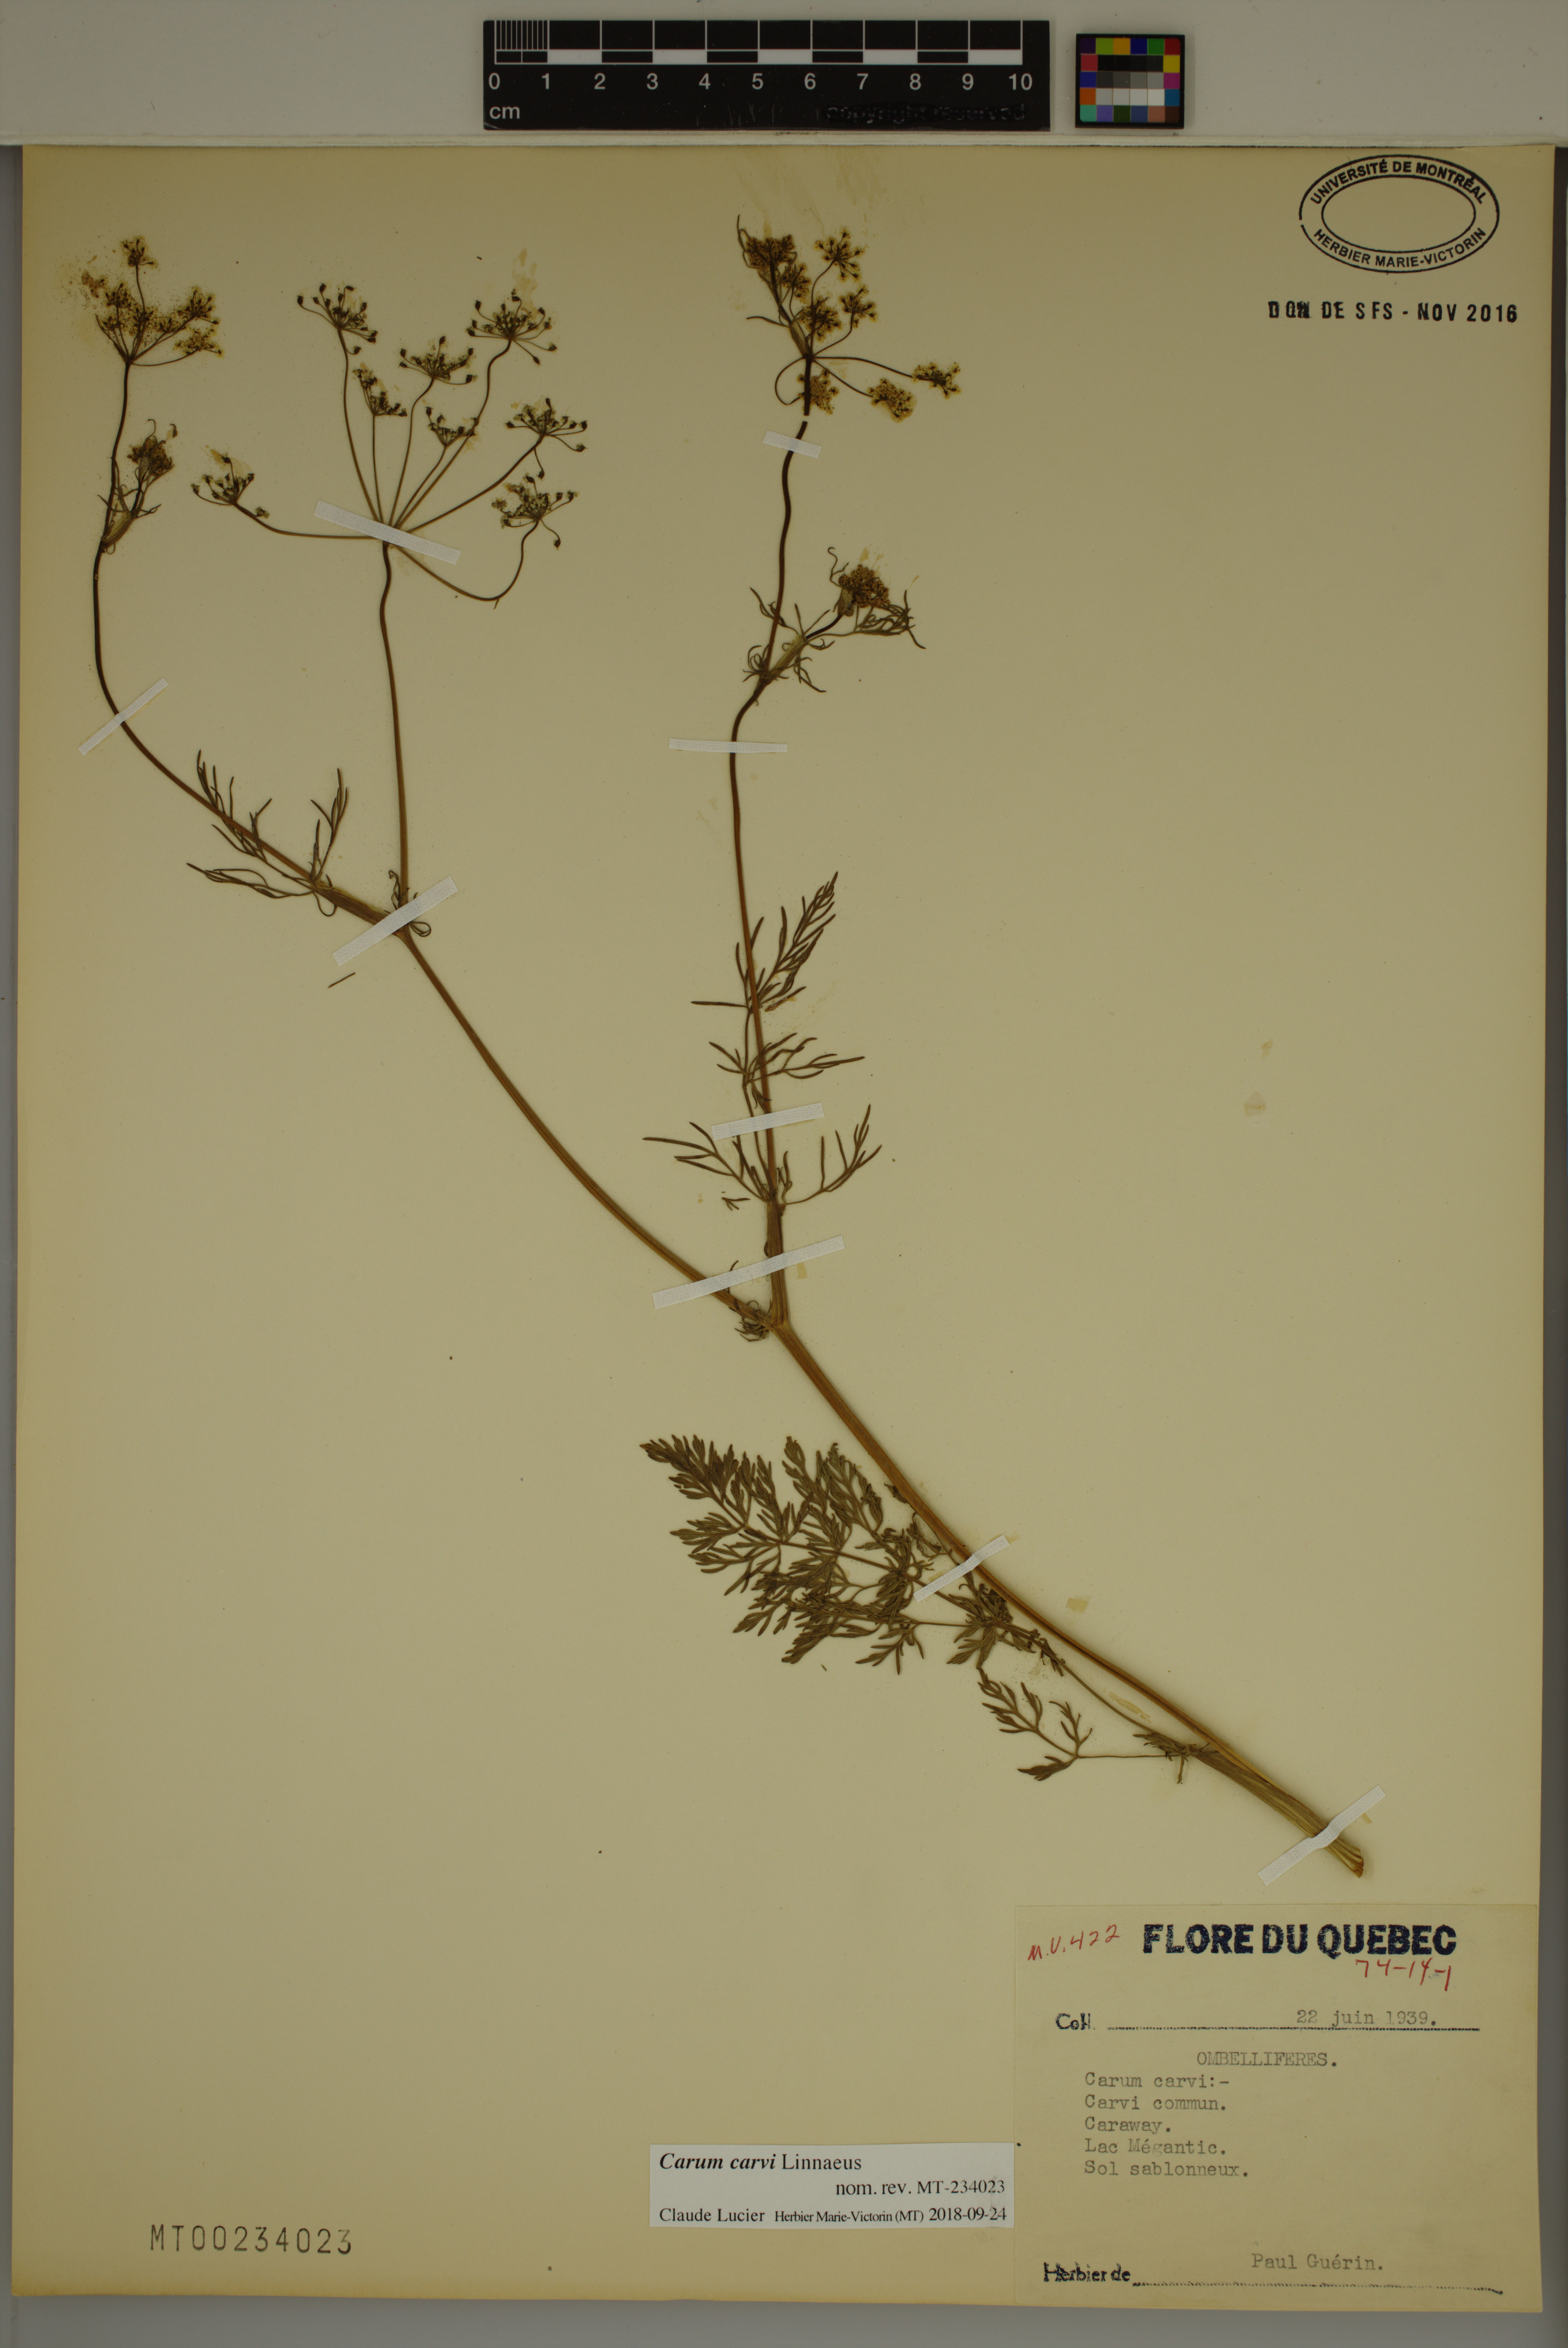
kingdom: Plantae
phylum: Tracheophyta
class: Magnoliopsida
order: Apiales
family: Apiaceae
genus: Carum
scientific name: Carum carvi
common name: Caraway
